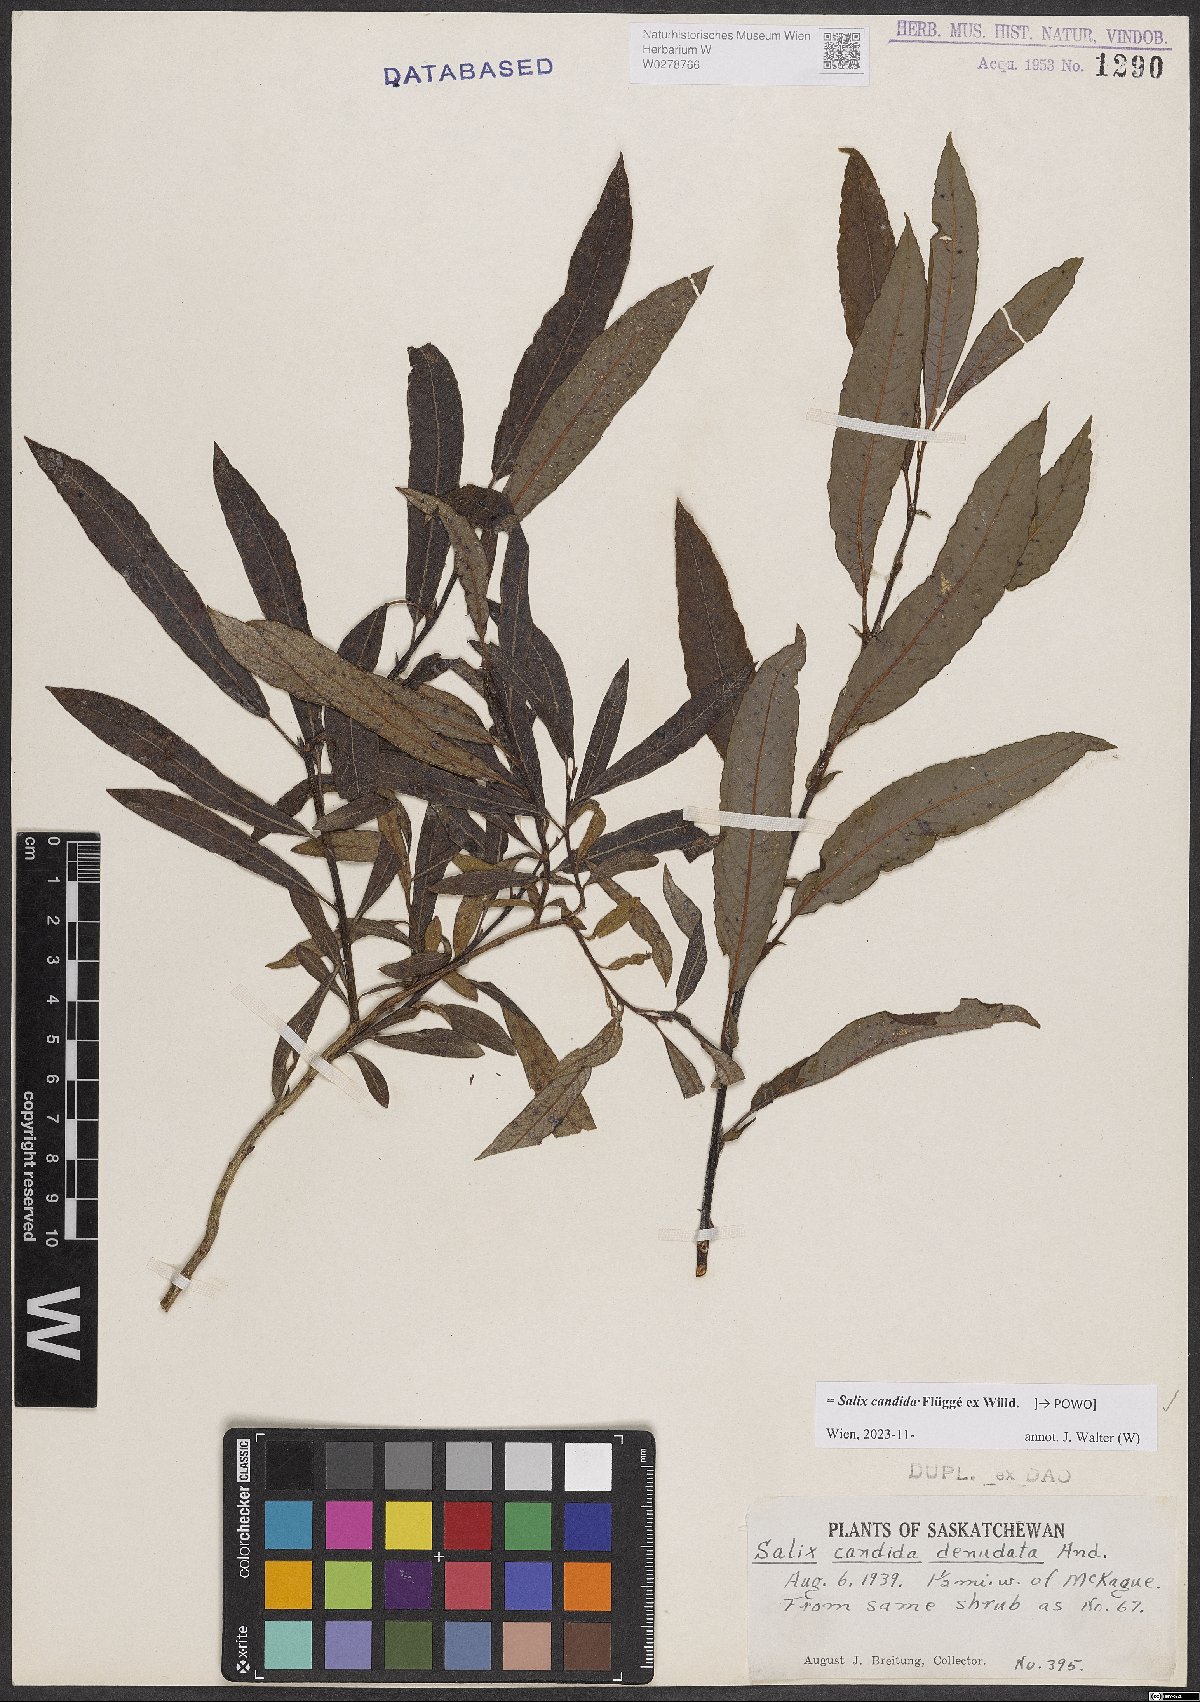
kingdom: Plantae
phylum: Tracheophyta
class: Magnoliopsida
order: Malpighiales
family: Salicaceae
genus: Salix
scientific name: Salix candida
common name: Hoary willow
